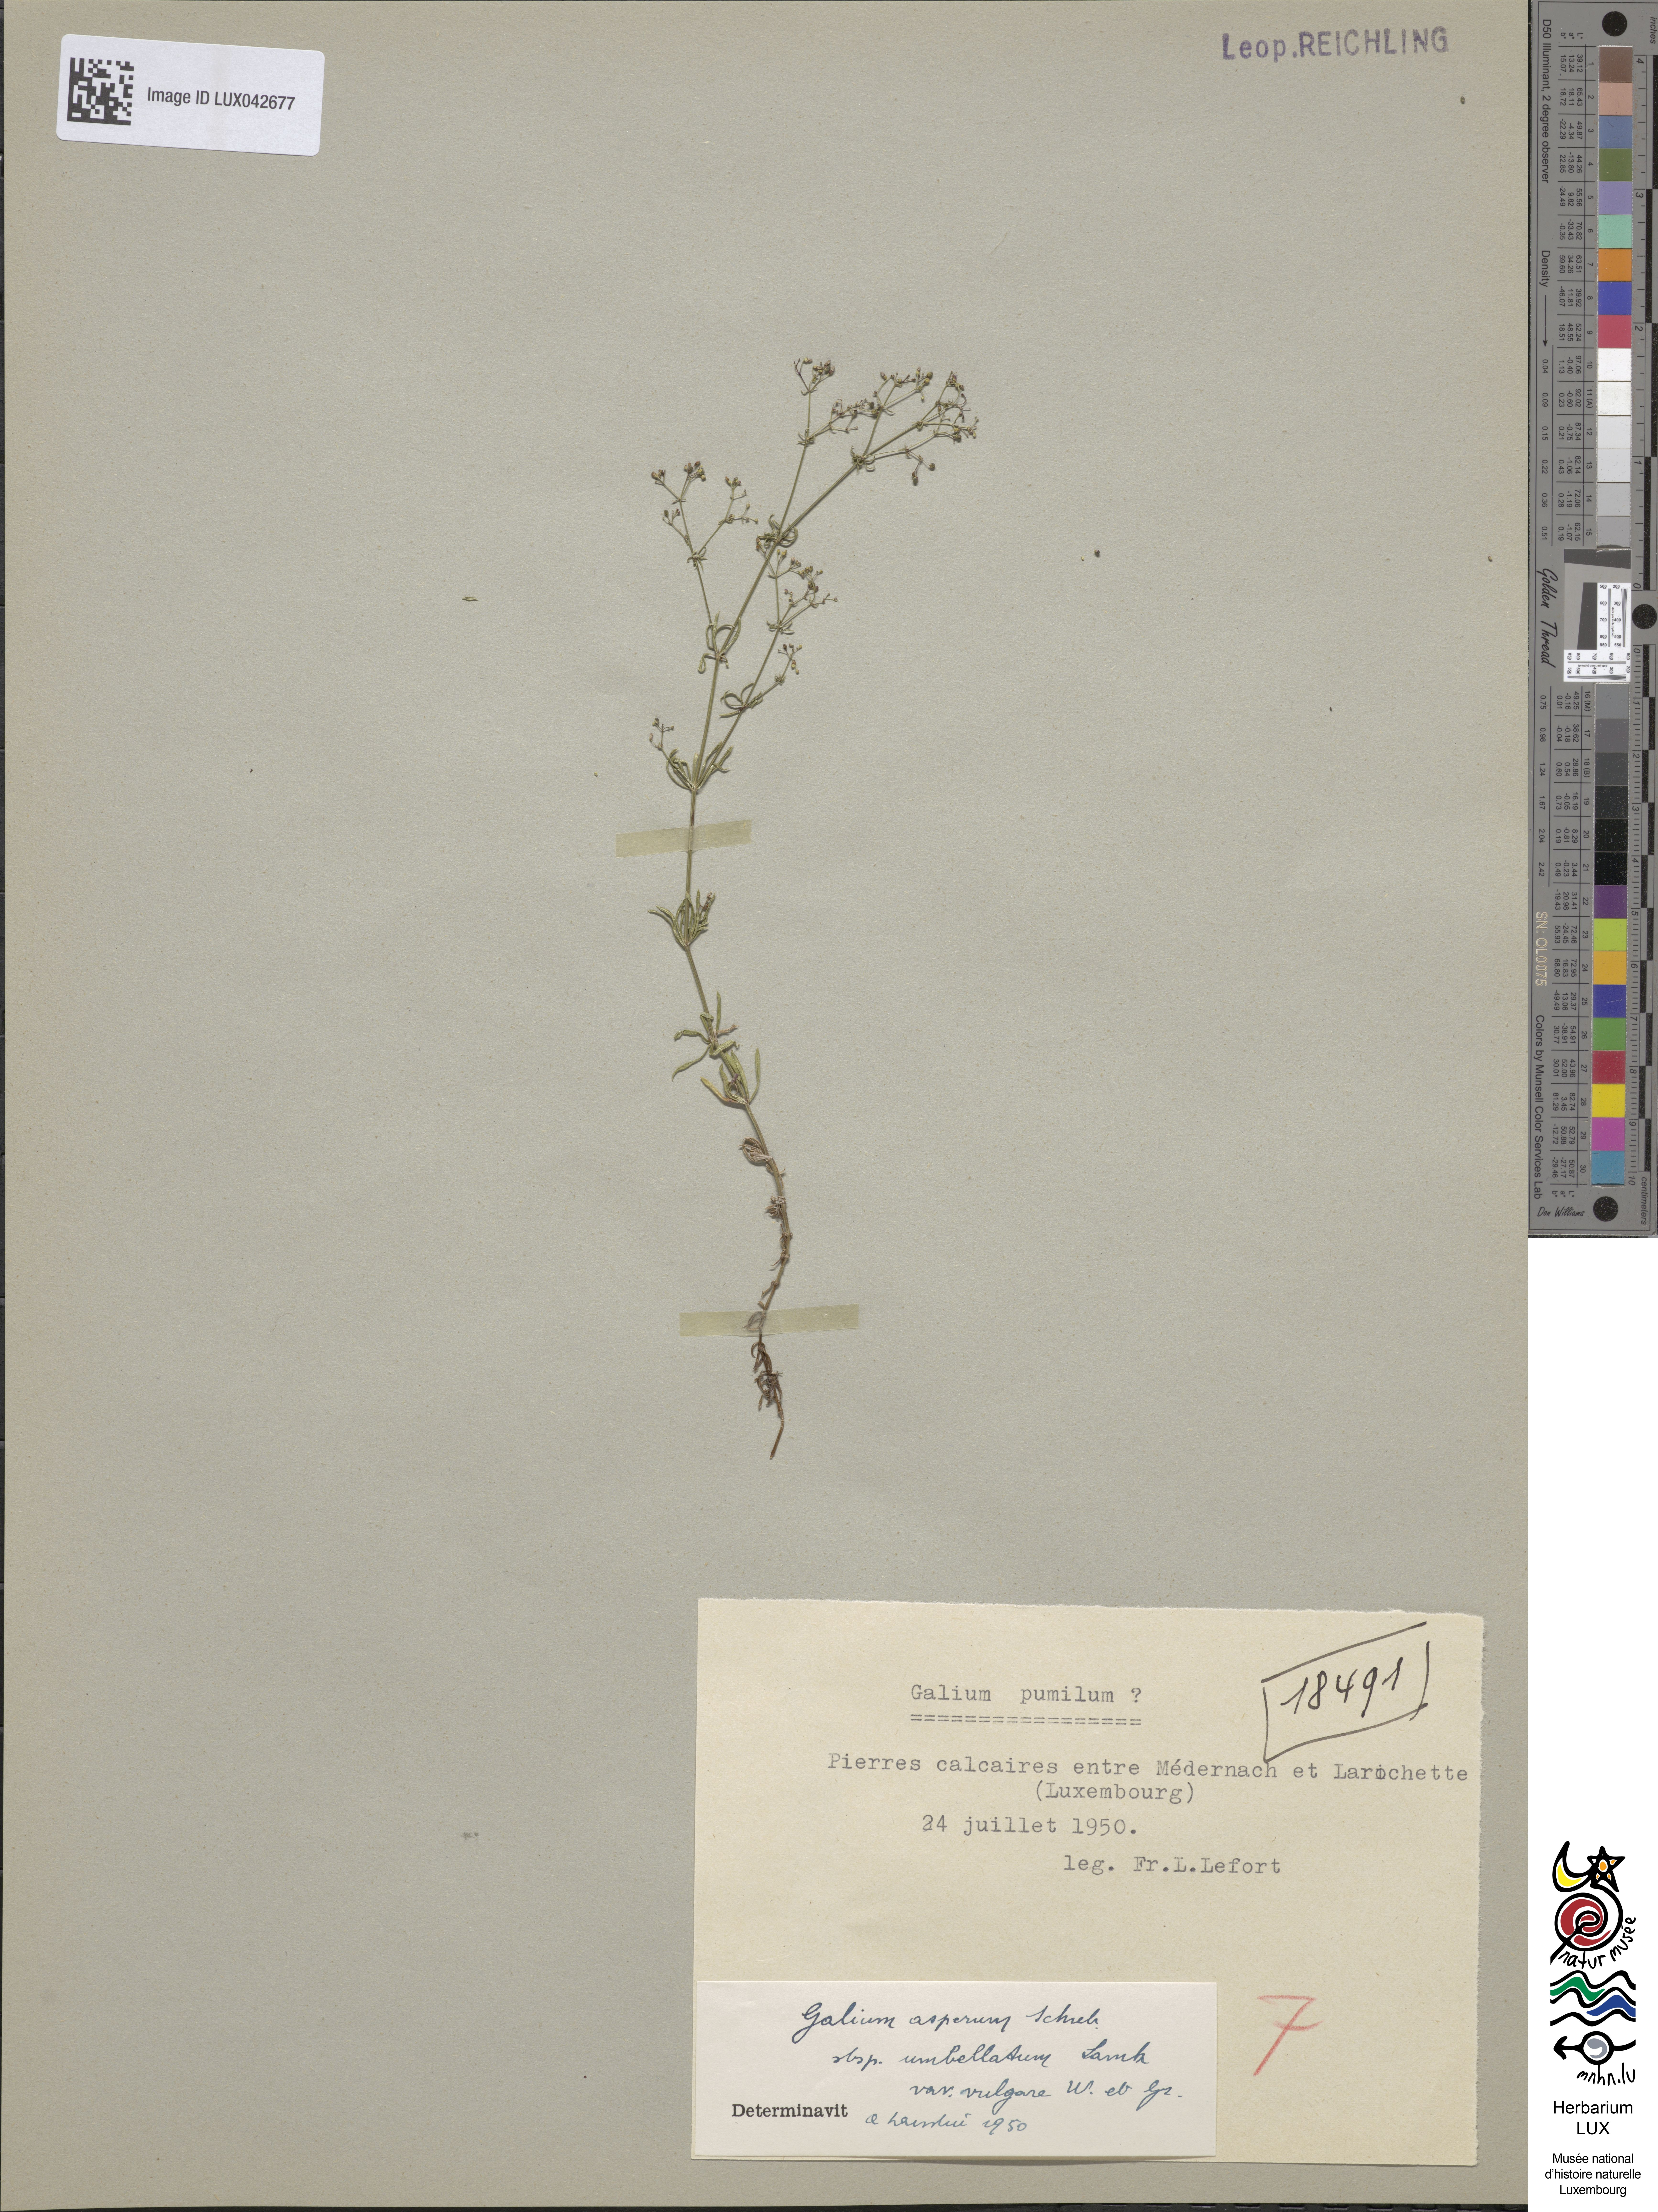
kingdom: Plantae
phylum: Tracheophyta
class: Magnoliopsida
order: Gentianales
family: Rubiaceae
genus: Galium
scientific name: Galium
